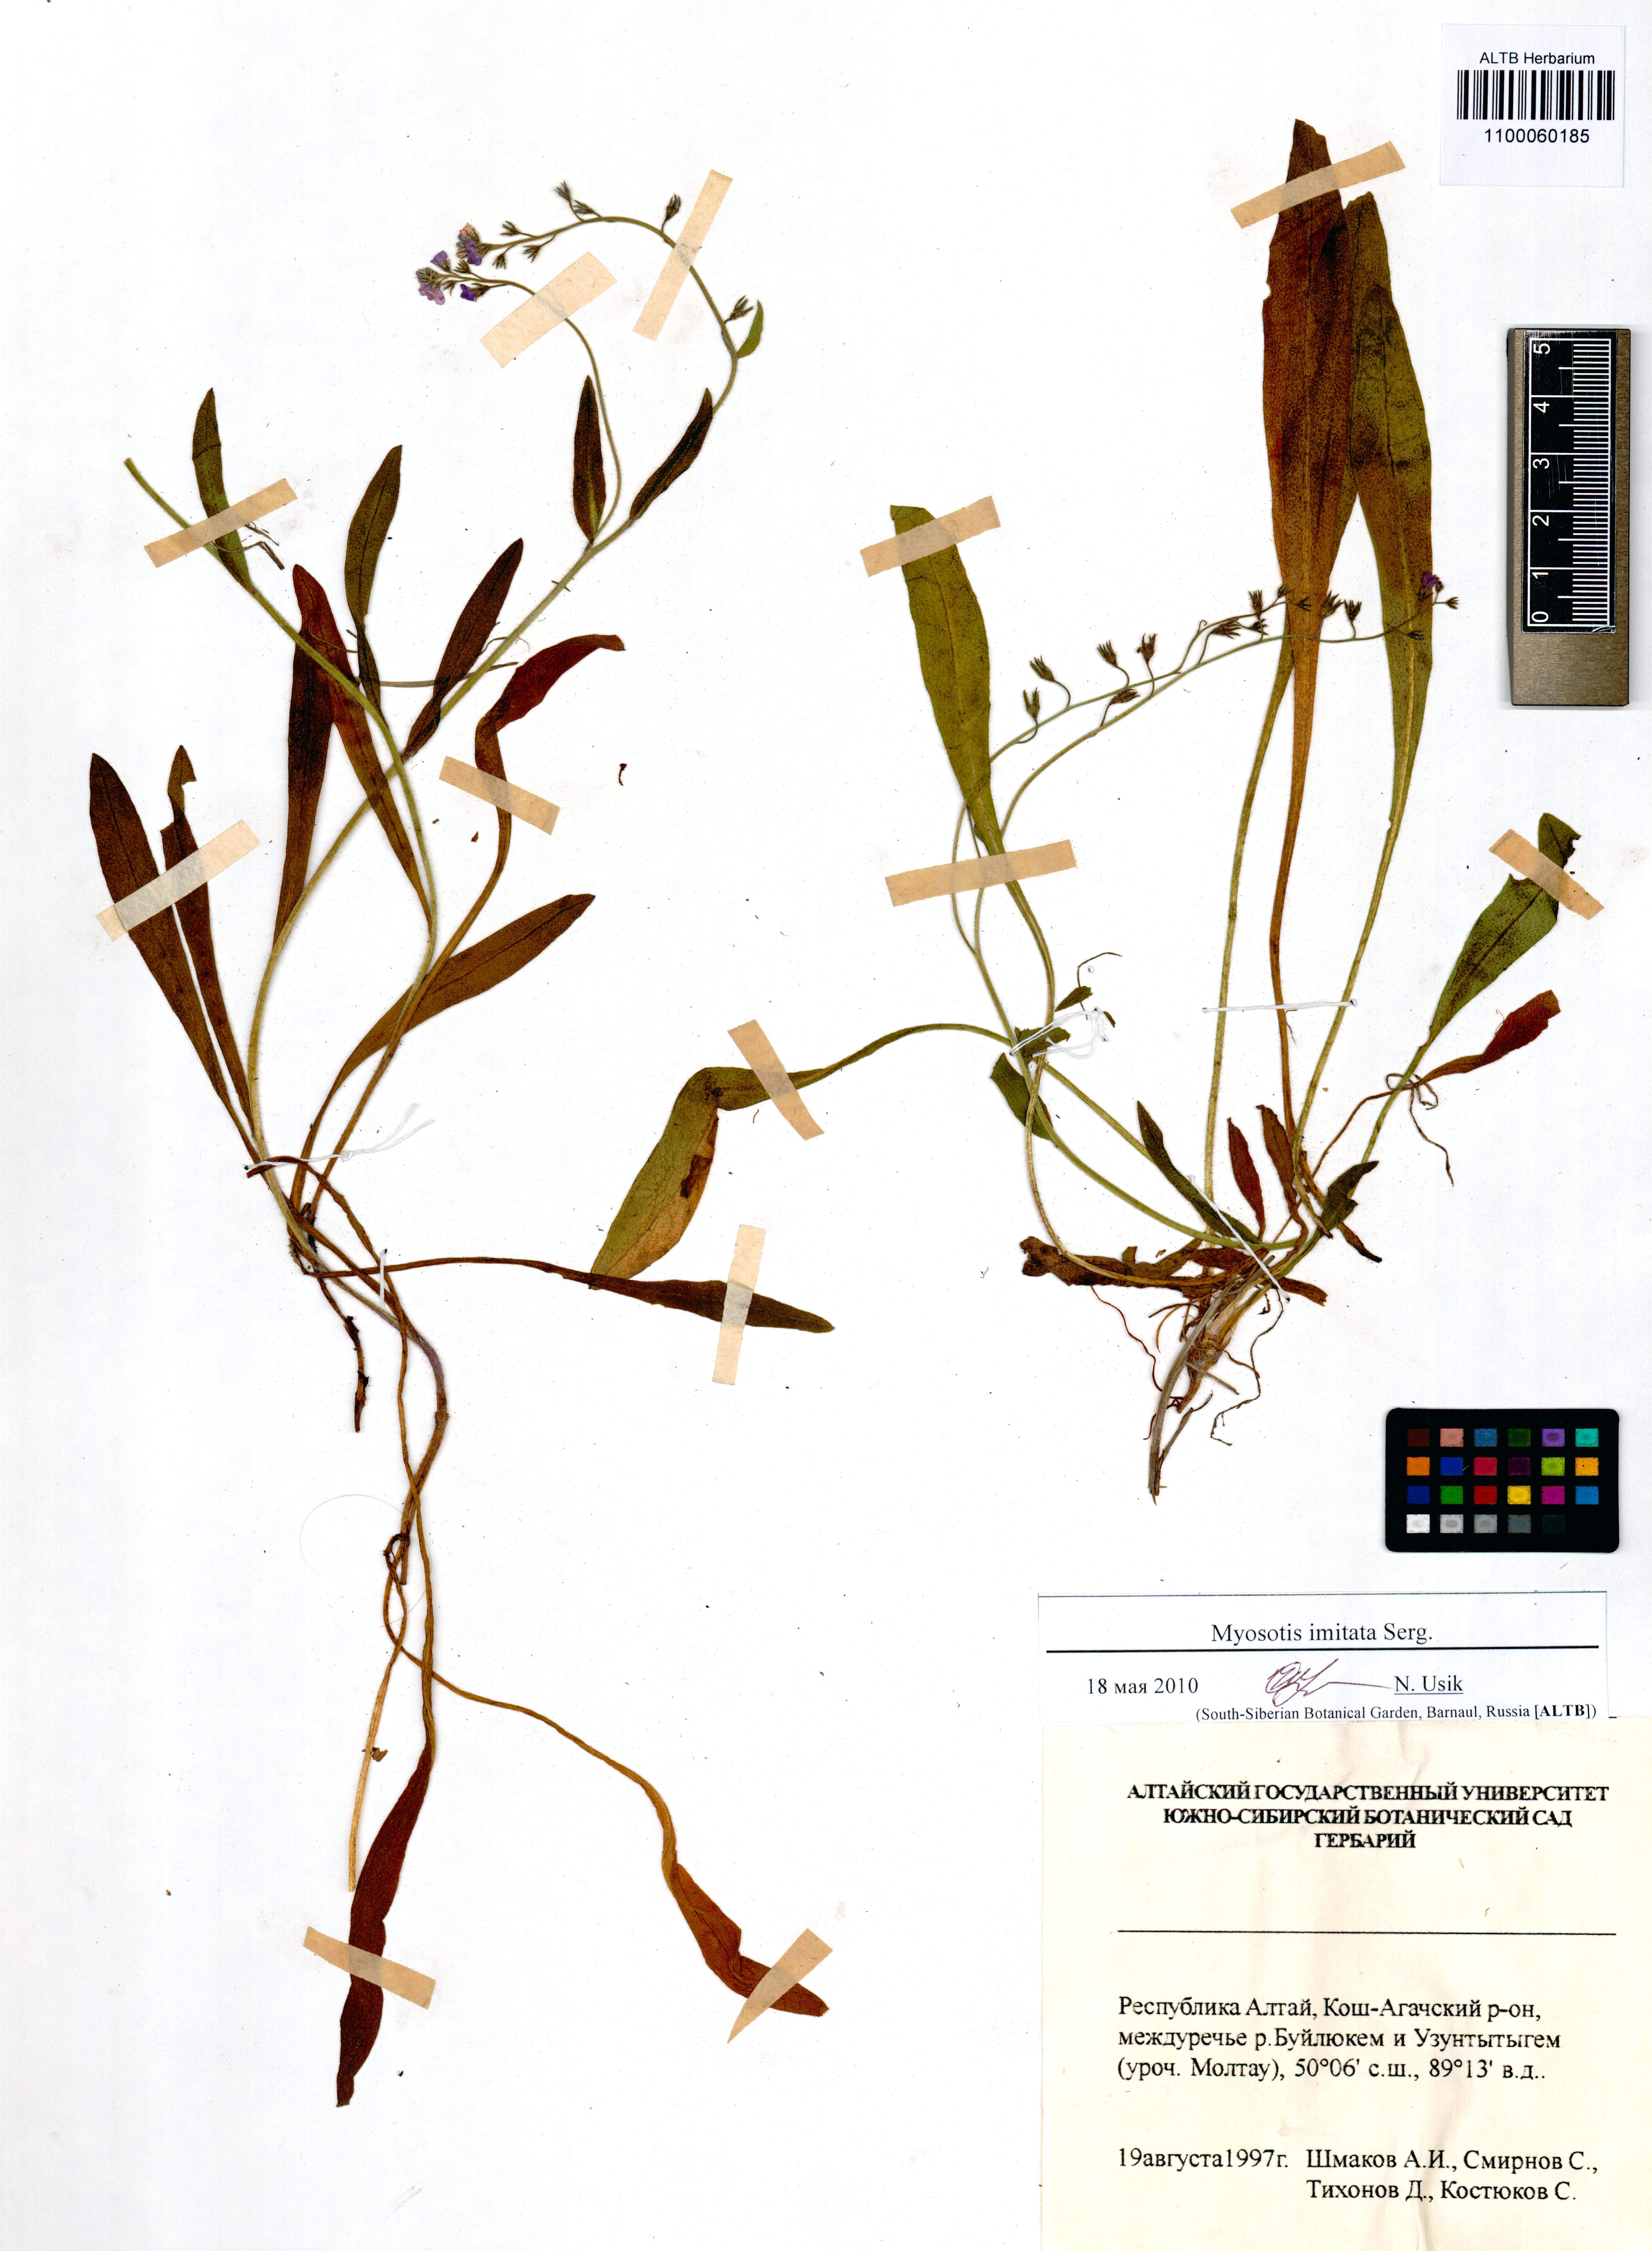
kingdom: Plantae
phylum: Tracheophyta
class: Magnoliopsida
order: Boraginales
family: Boraginaceae
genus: Myosotis
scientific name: Myosotis imitata
